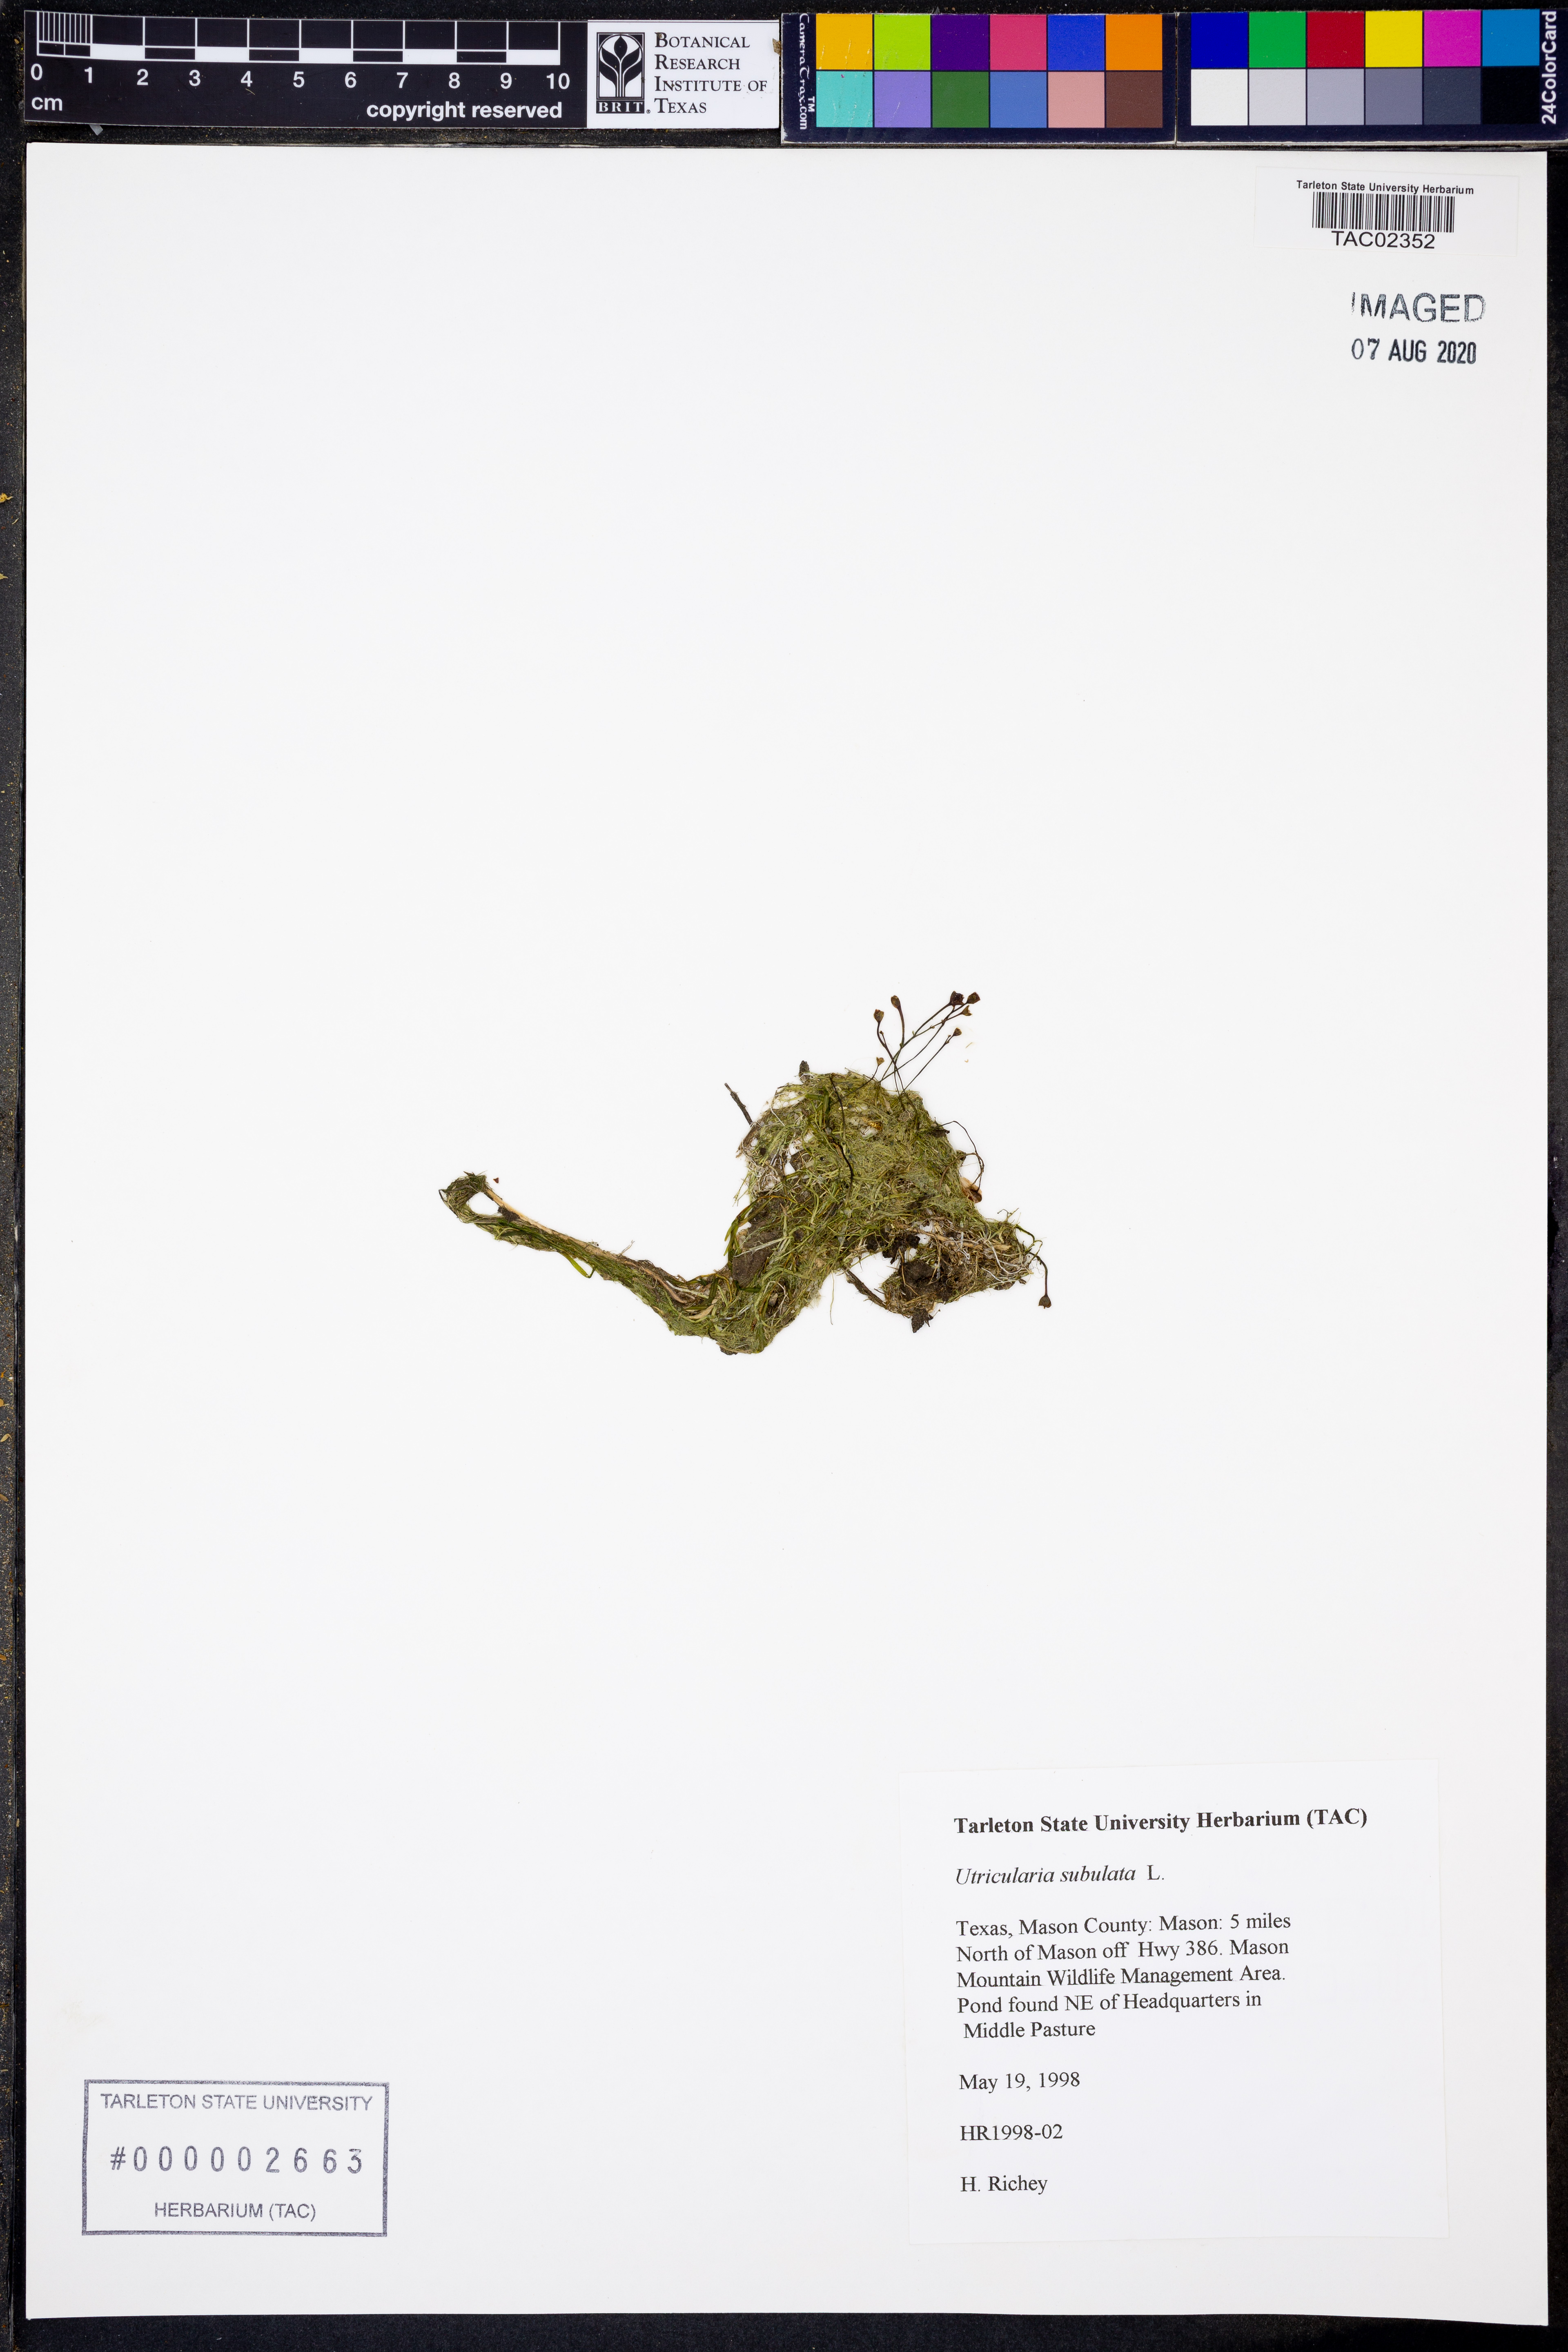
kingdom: Plantae
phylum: Tracheophyta
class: Magnoliopsida
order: Lamiales
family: Lentibulariaceae
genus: Utricularia
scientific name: Utricularia subulata
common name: Tiny bladderwort
